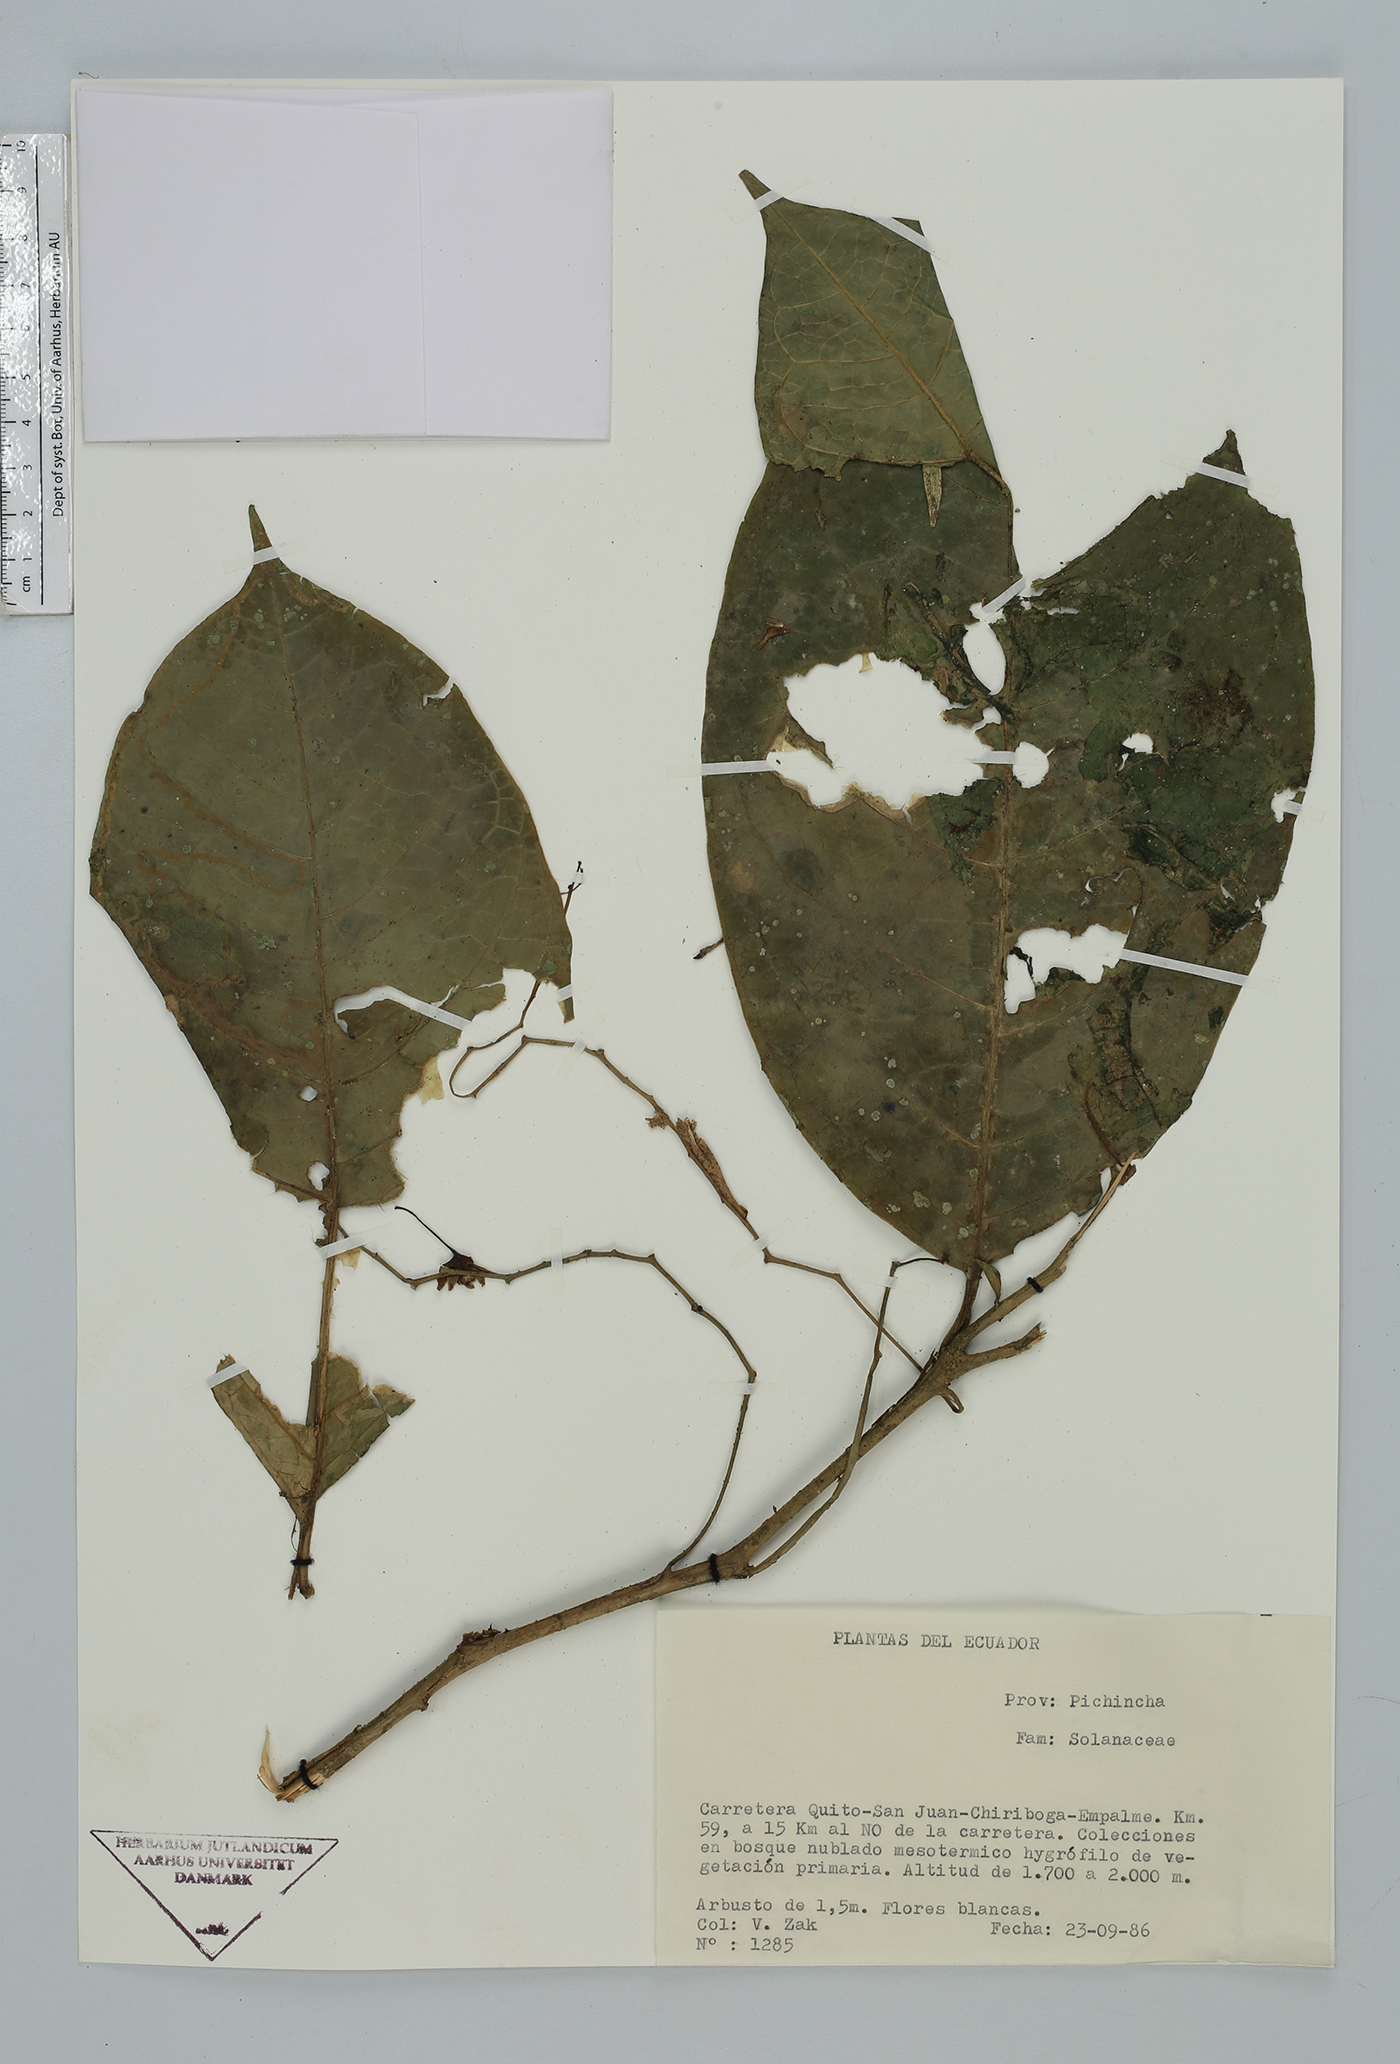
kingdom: Plantae
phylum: Tracheophyta
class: Magnoliopsida
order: Solanales
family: Solanaceae
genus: Solanum
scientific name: Solanum
